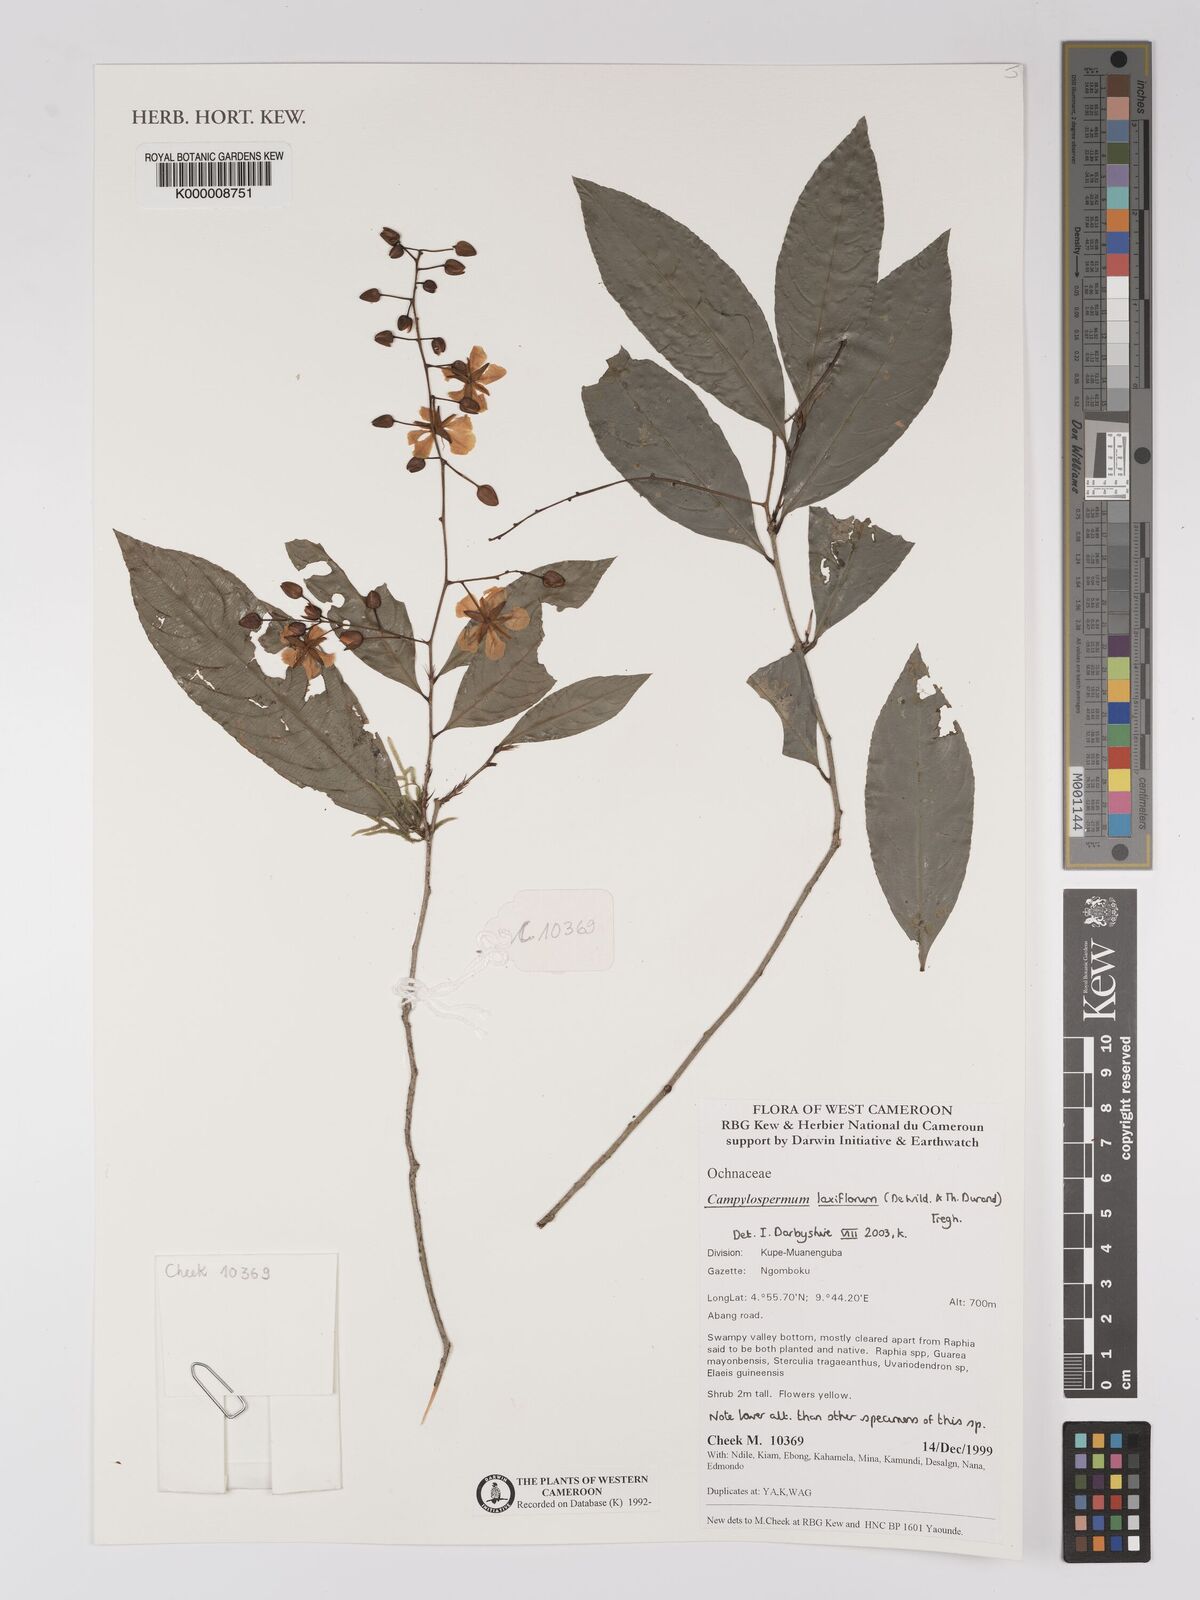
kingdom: Plantae
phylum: Tracheophyta
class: Magnoliopsida
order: Malpighiales
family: Ochnaceae
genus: Campylospermum
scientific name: Campylospermum laxiflorum
